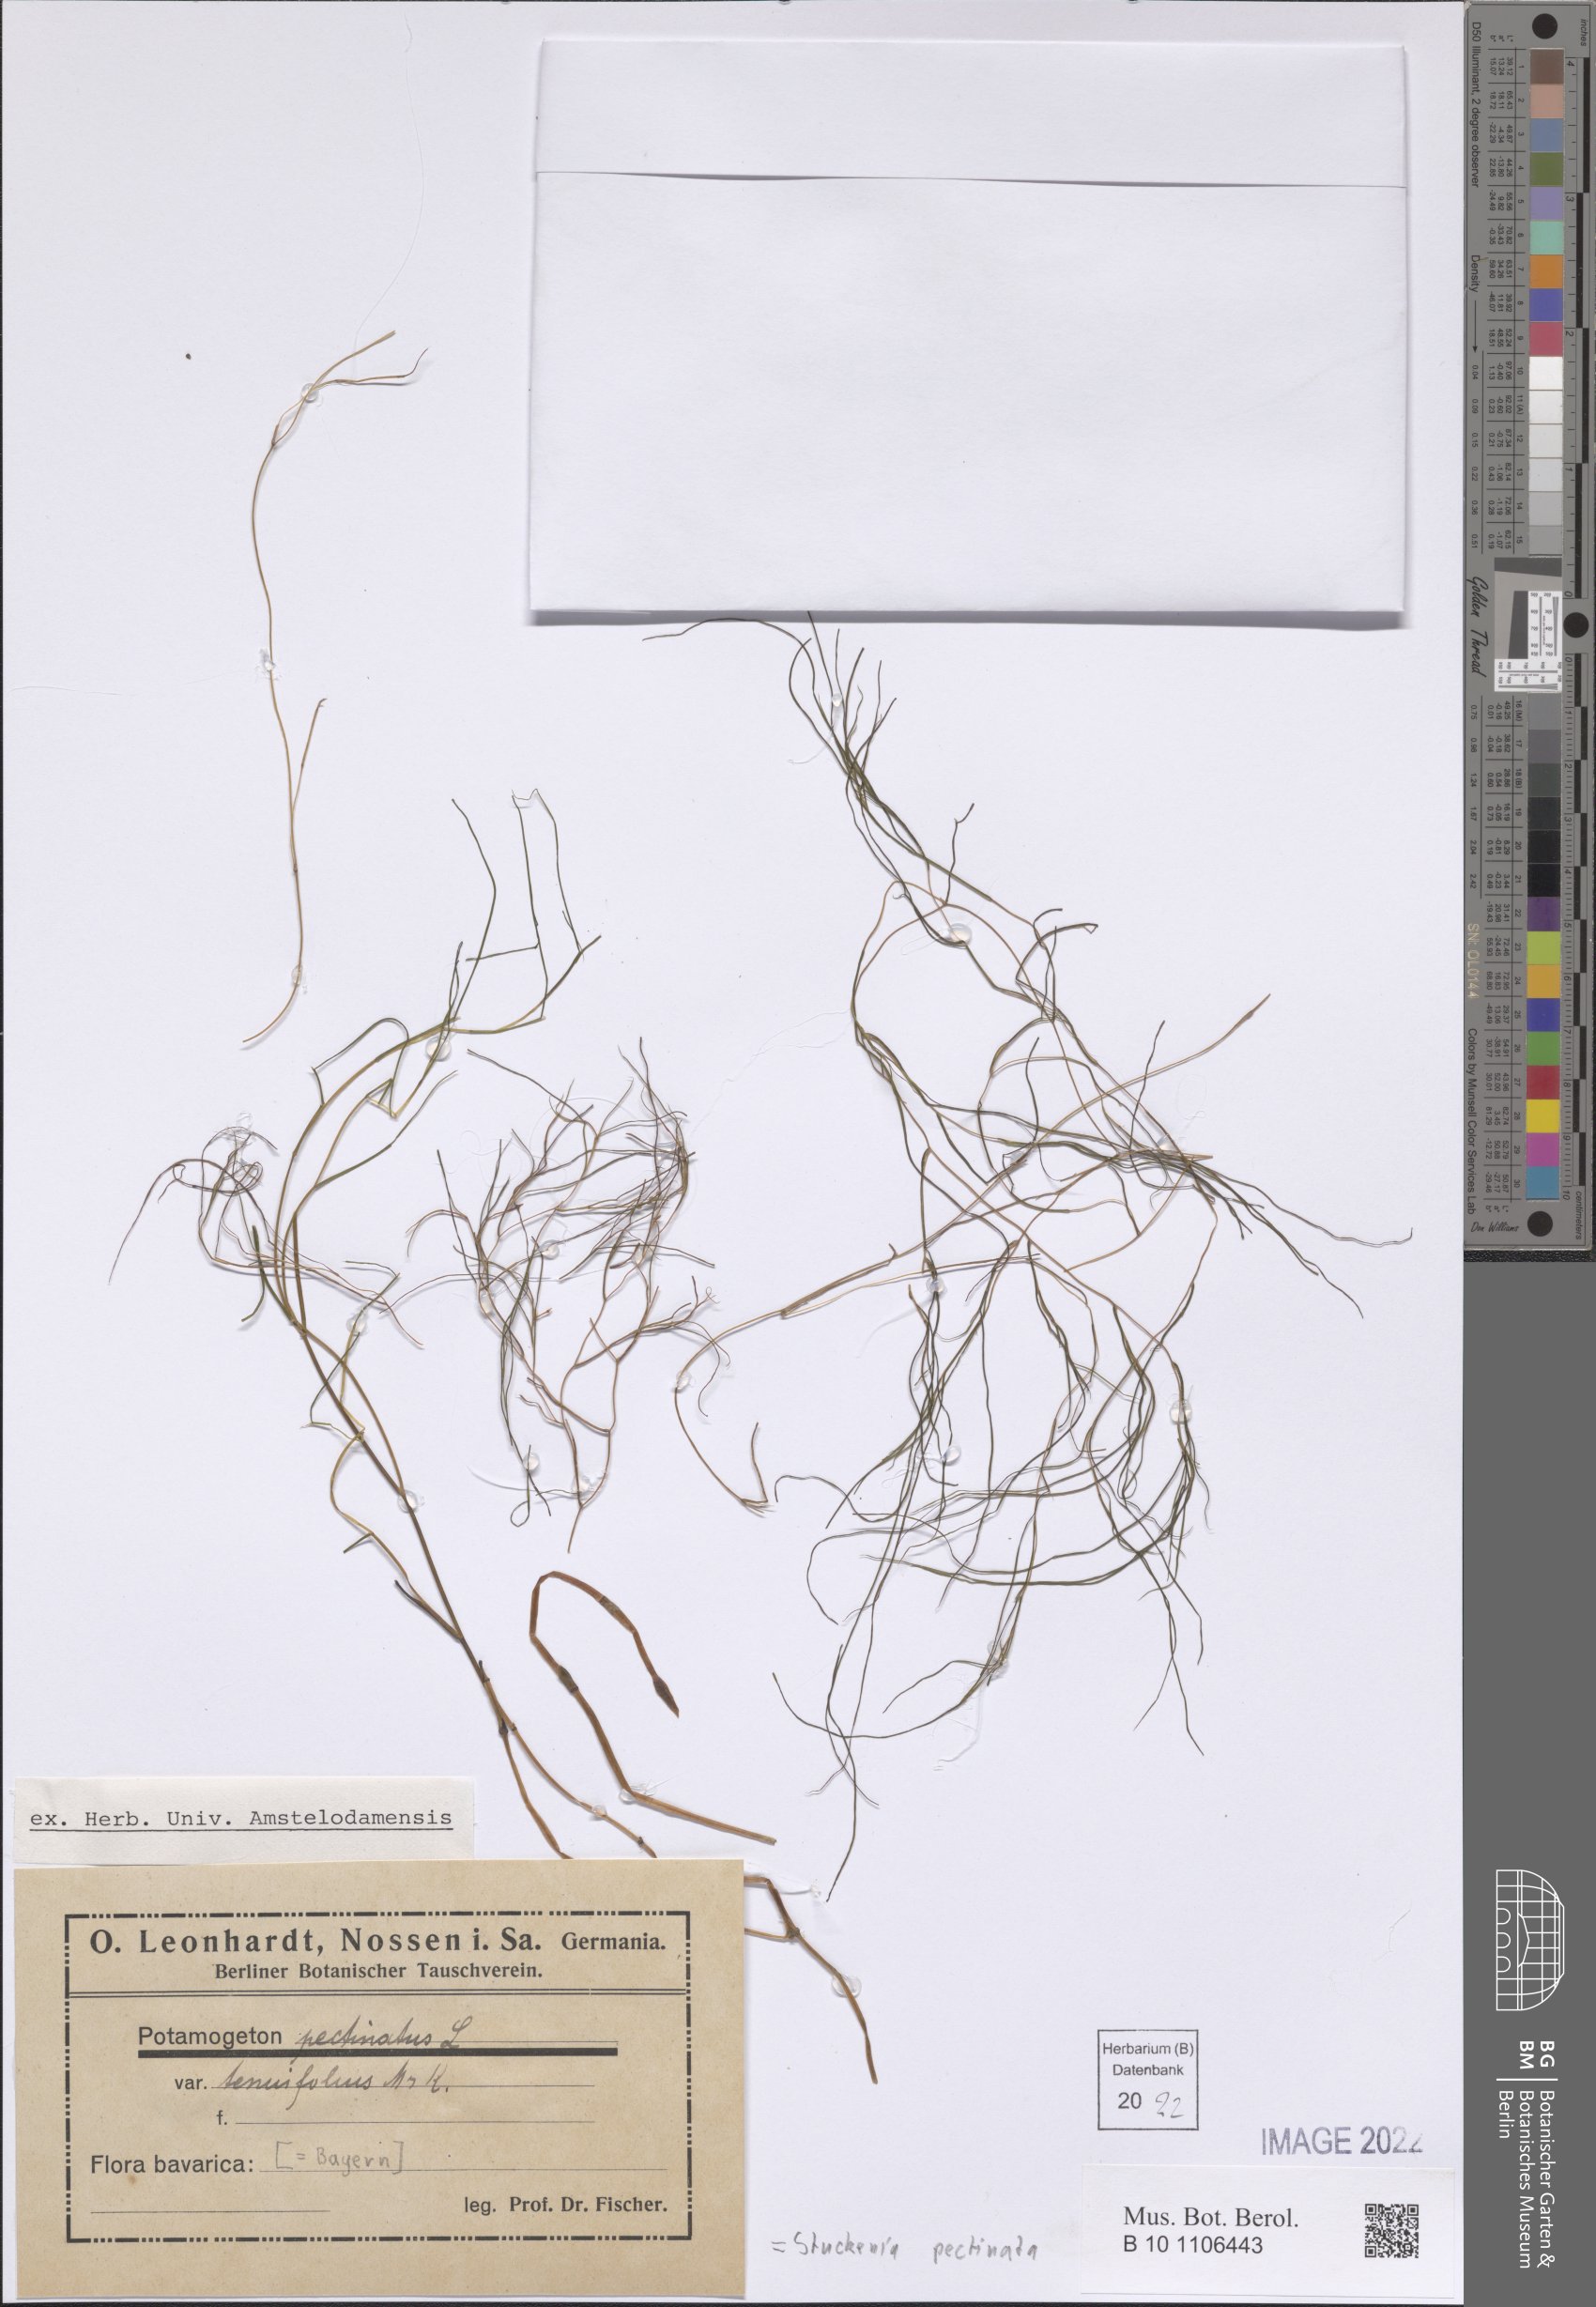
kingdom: Plantae
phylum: Tracheophyta
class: Liliopsida
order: Alismatales
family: Potamogetonaceae
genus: Stuckenia
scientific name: Stuckenia pectinata
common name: Sago pondweed
